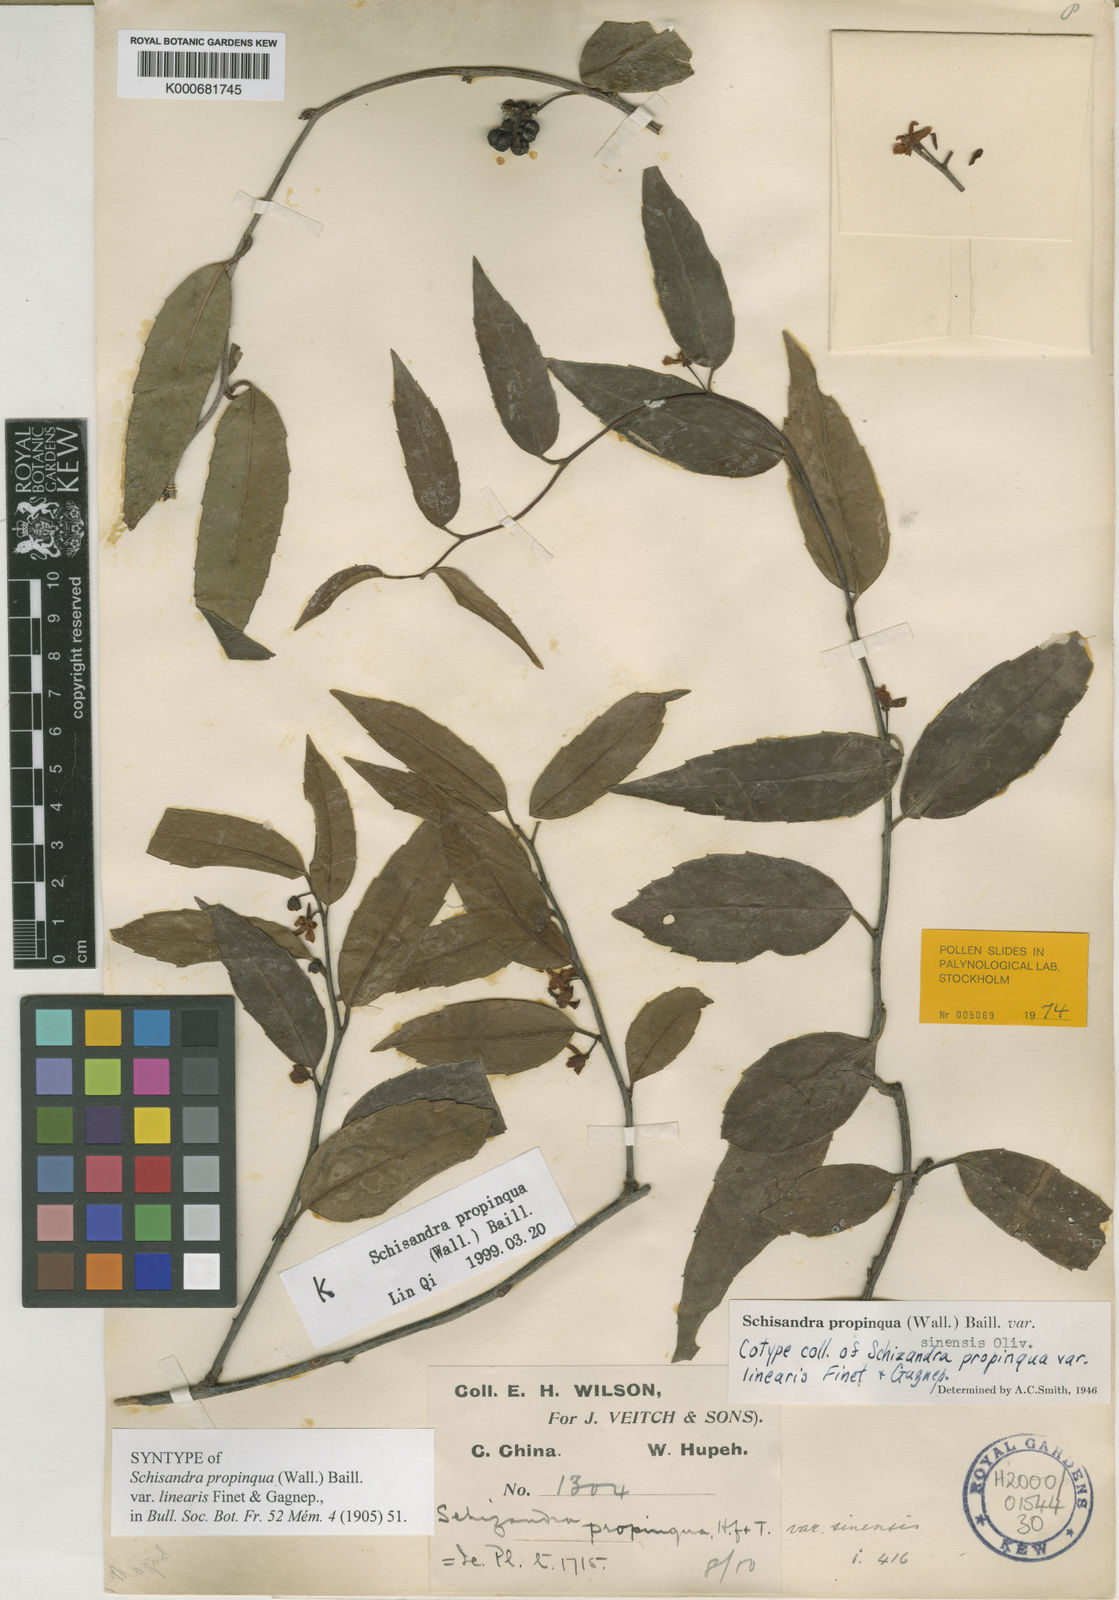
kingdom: Plantae
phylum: Tracheophyta
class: Magnoliopsida
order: Austrobaileyales
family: Schisandraceae
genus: Schisandra
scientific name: Schisandra propinqua
